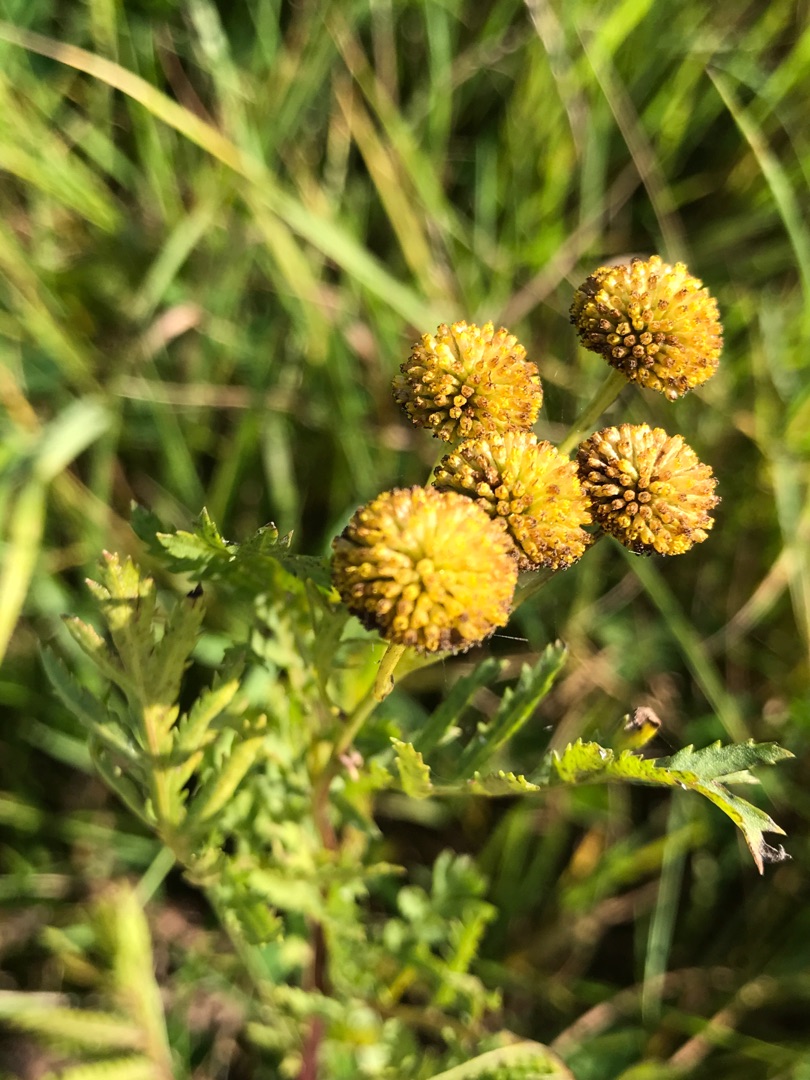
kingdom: Plantae
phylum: Tracheophyta
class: Magnoliopsida
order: Asterales
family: Asteraceae
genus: Tanacetum
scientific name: Tanacetum vulgare
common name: Rejnfan
